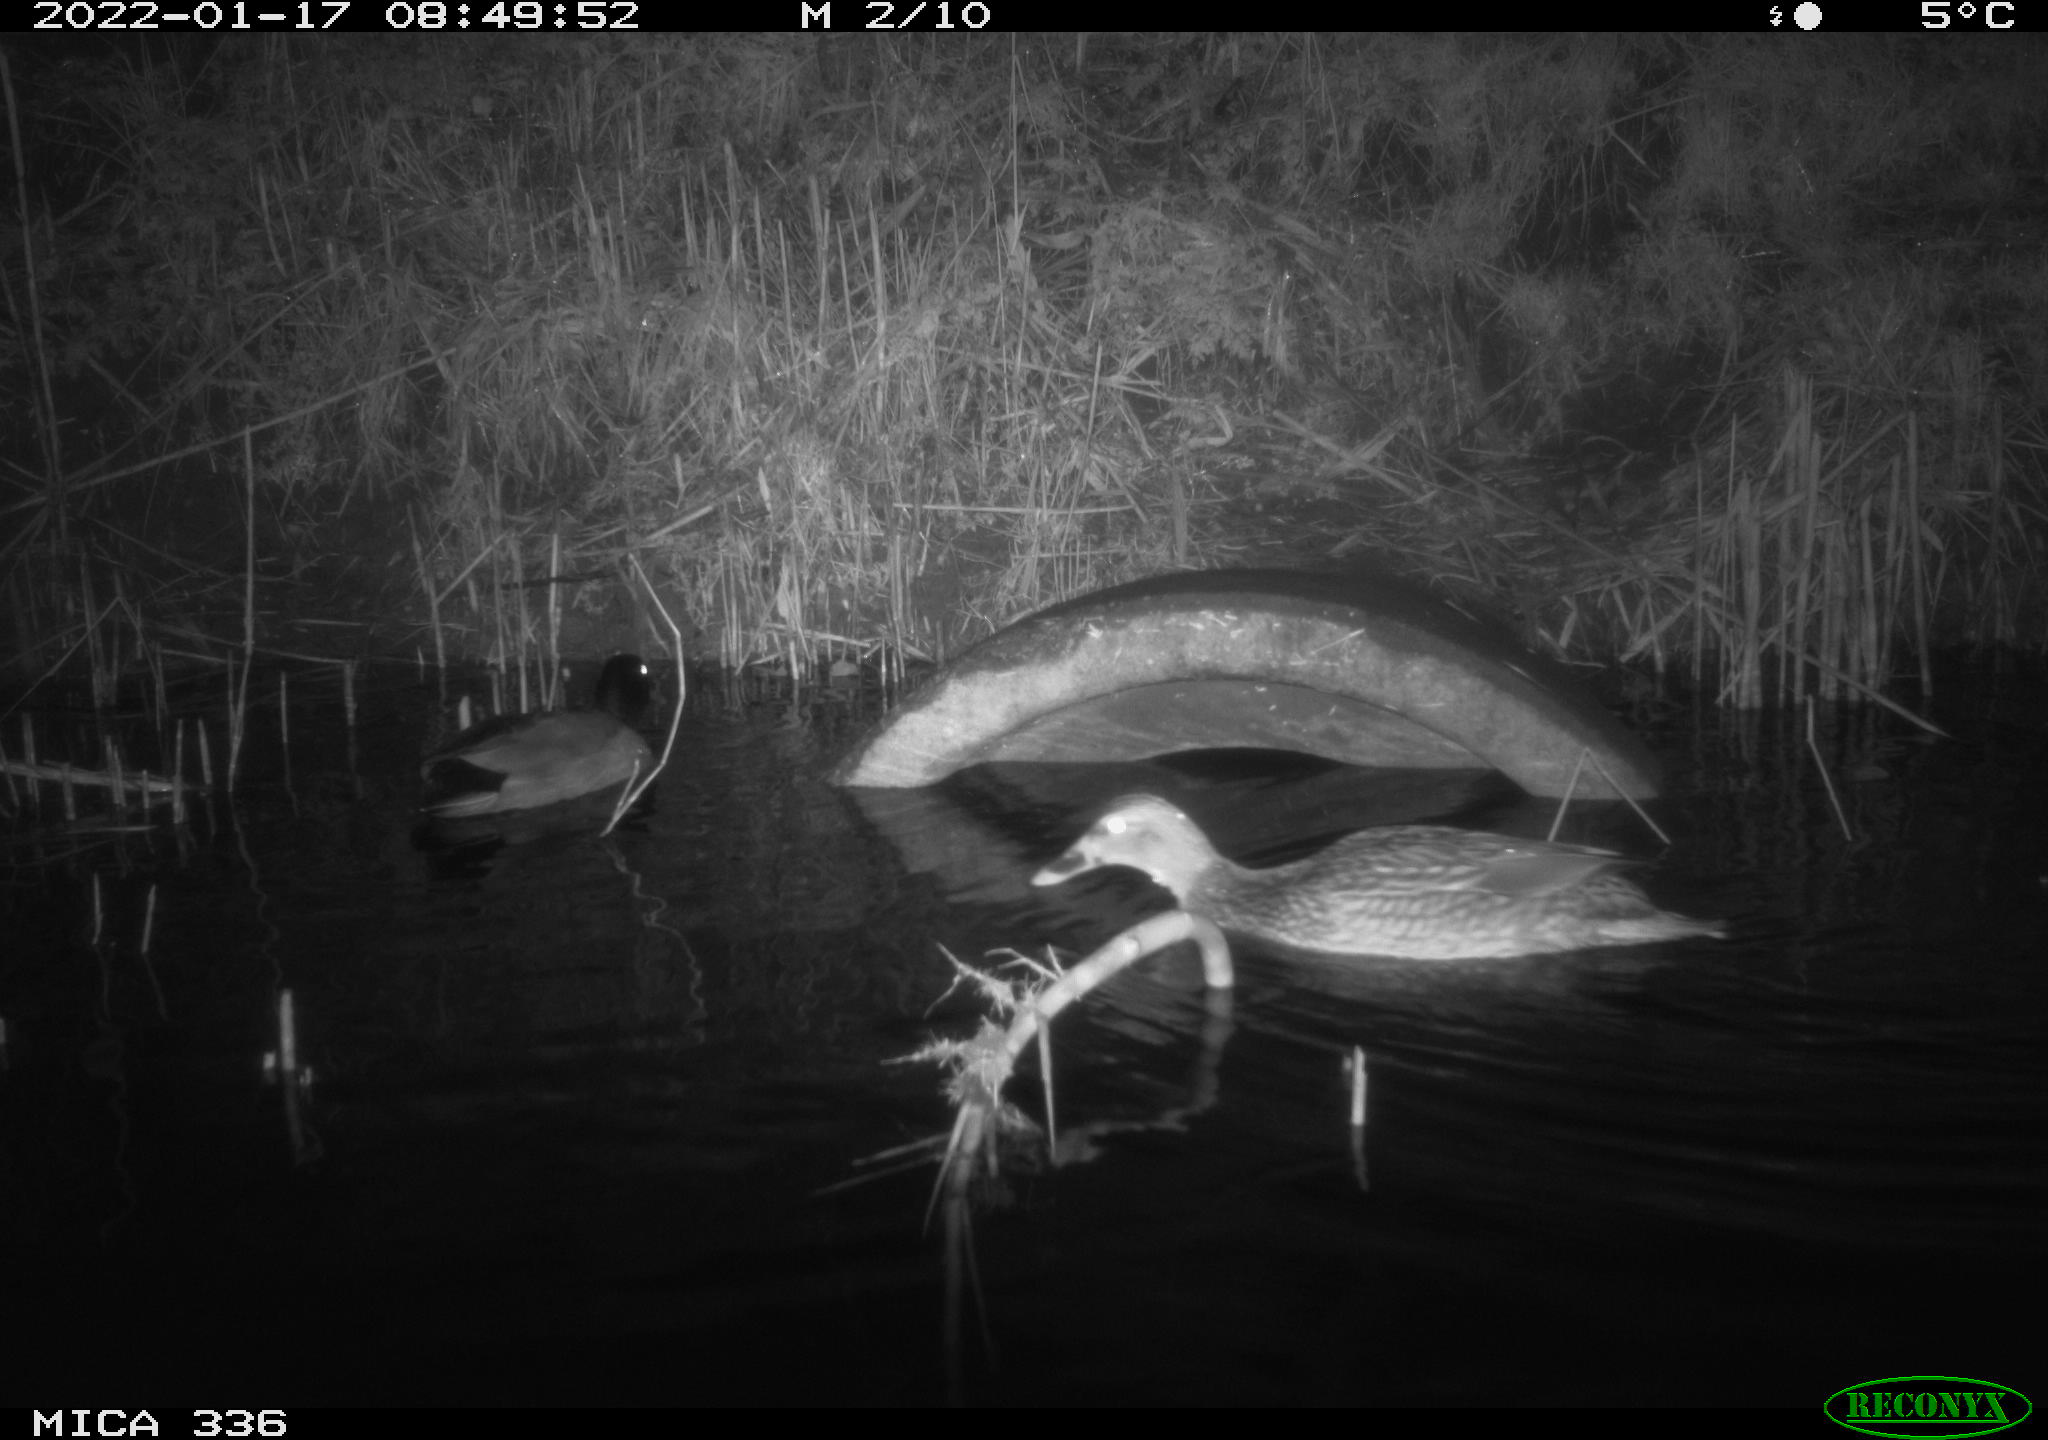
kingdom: Animalia
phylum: Chordata
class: Aves
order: Anseriformes
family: Anatidae
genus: Anas
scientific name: Anas platyrhynchos
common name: Mallard
